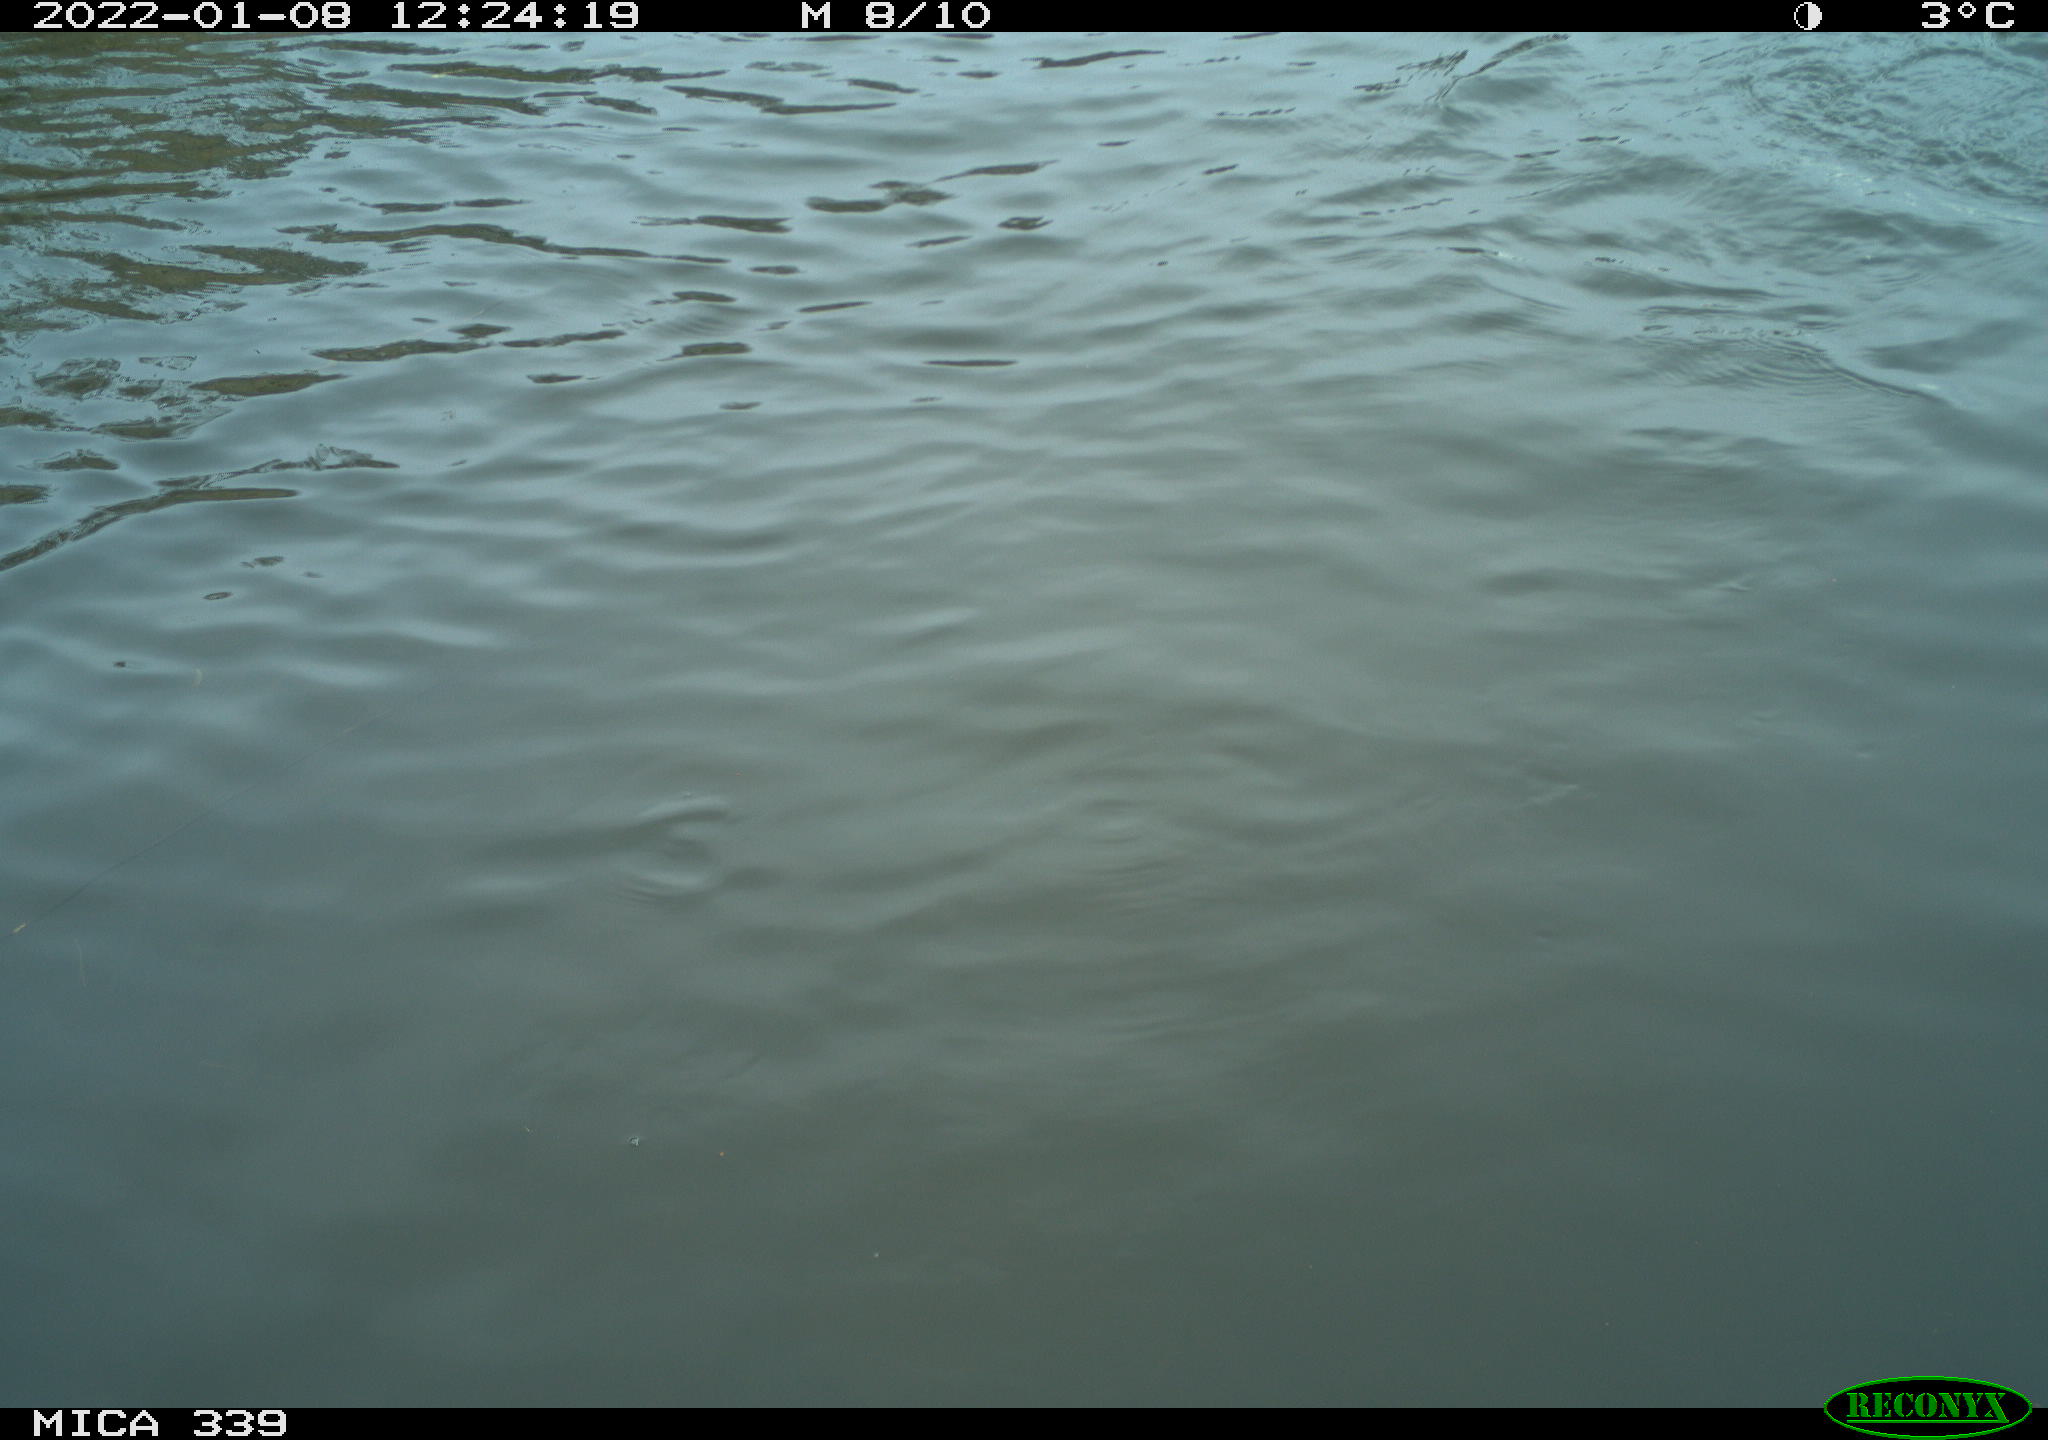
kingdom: Animalia
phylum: Chordata
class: Aves
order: Suliformes
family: Phalacrocoracidae
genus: Phalacrocorax
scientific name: Phalacrocorax carbo
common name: Great cormorant
